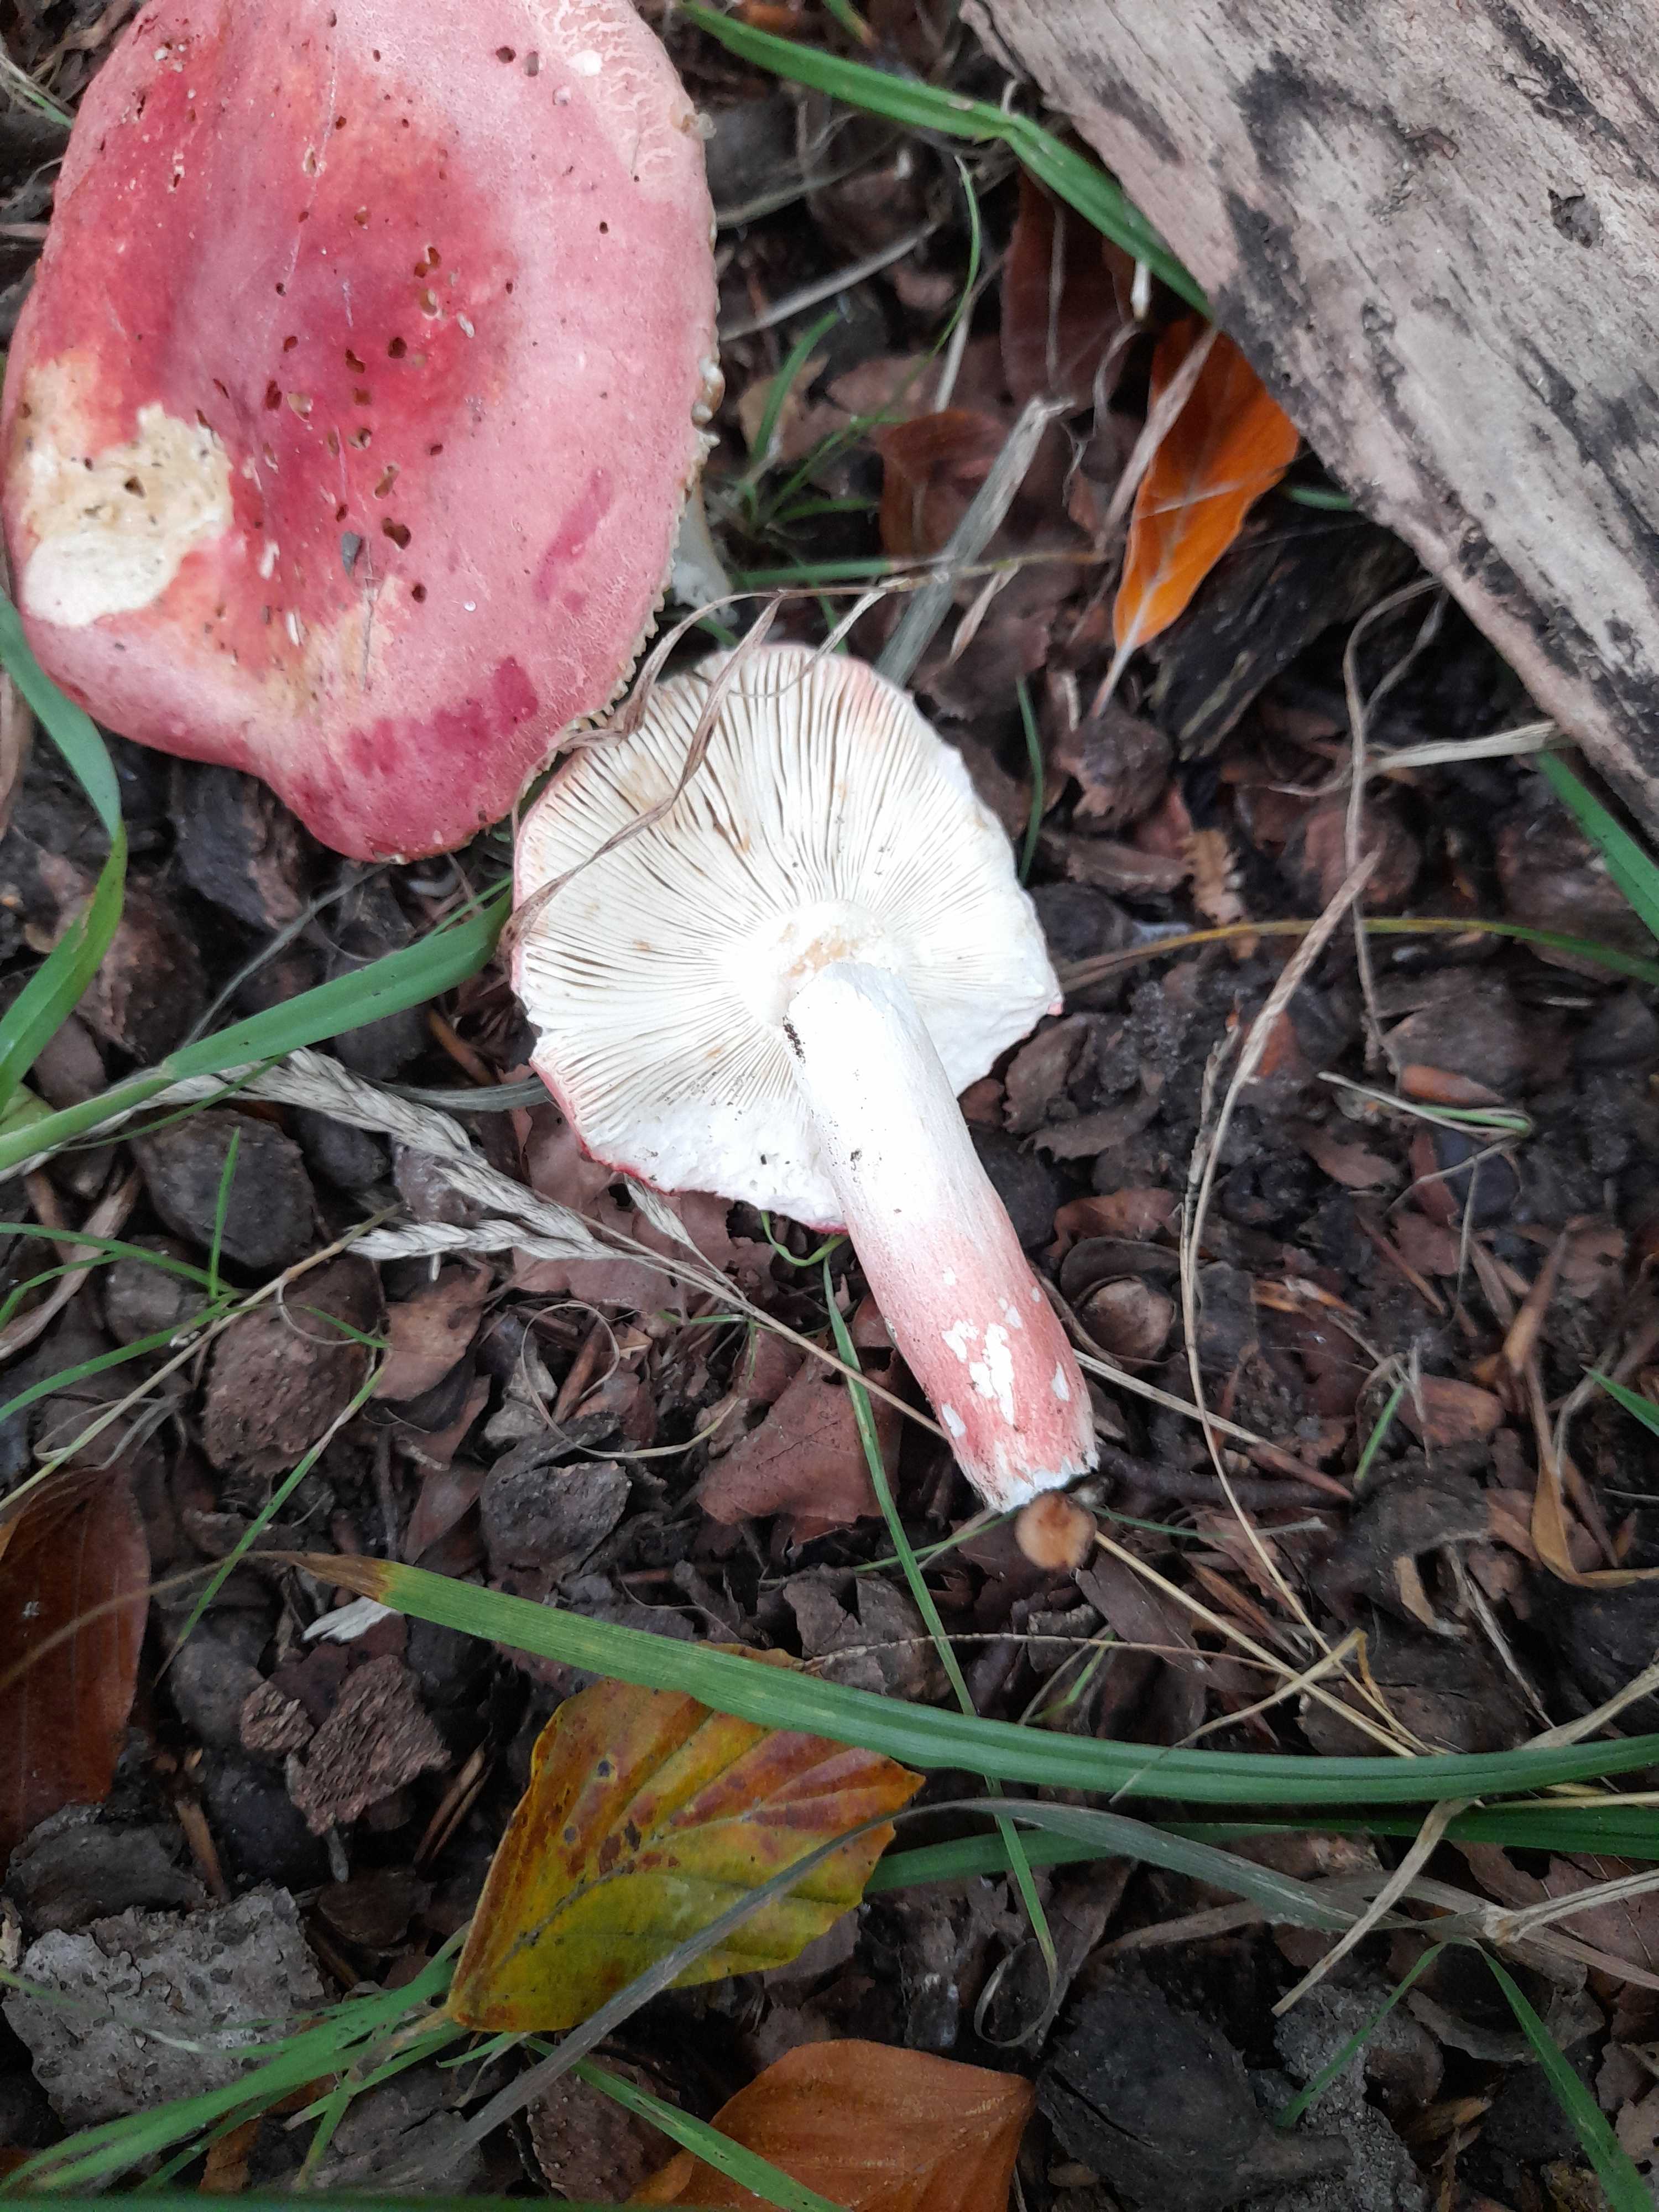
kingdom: Fungi
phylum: Basidiomycota
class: Agaricomycetes
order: Russulales
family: Russulaceae
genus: Russula
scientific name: Russula rosea
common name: fastkødet skørhat
